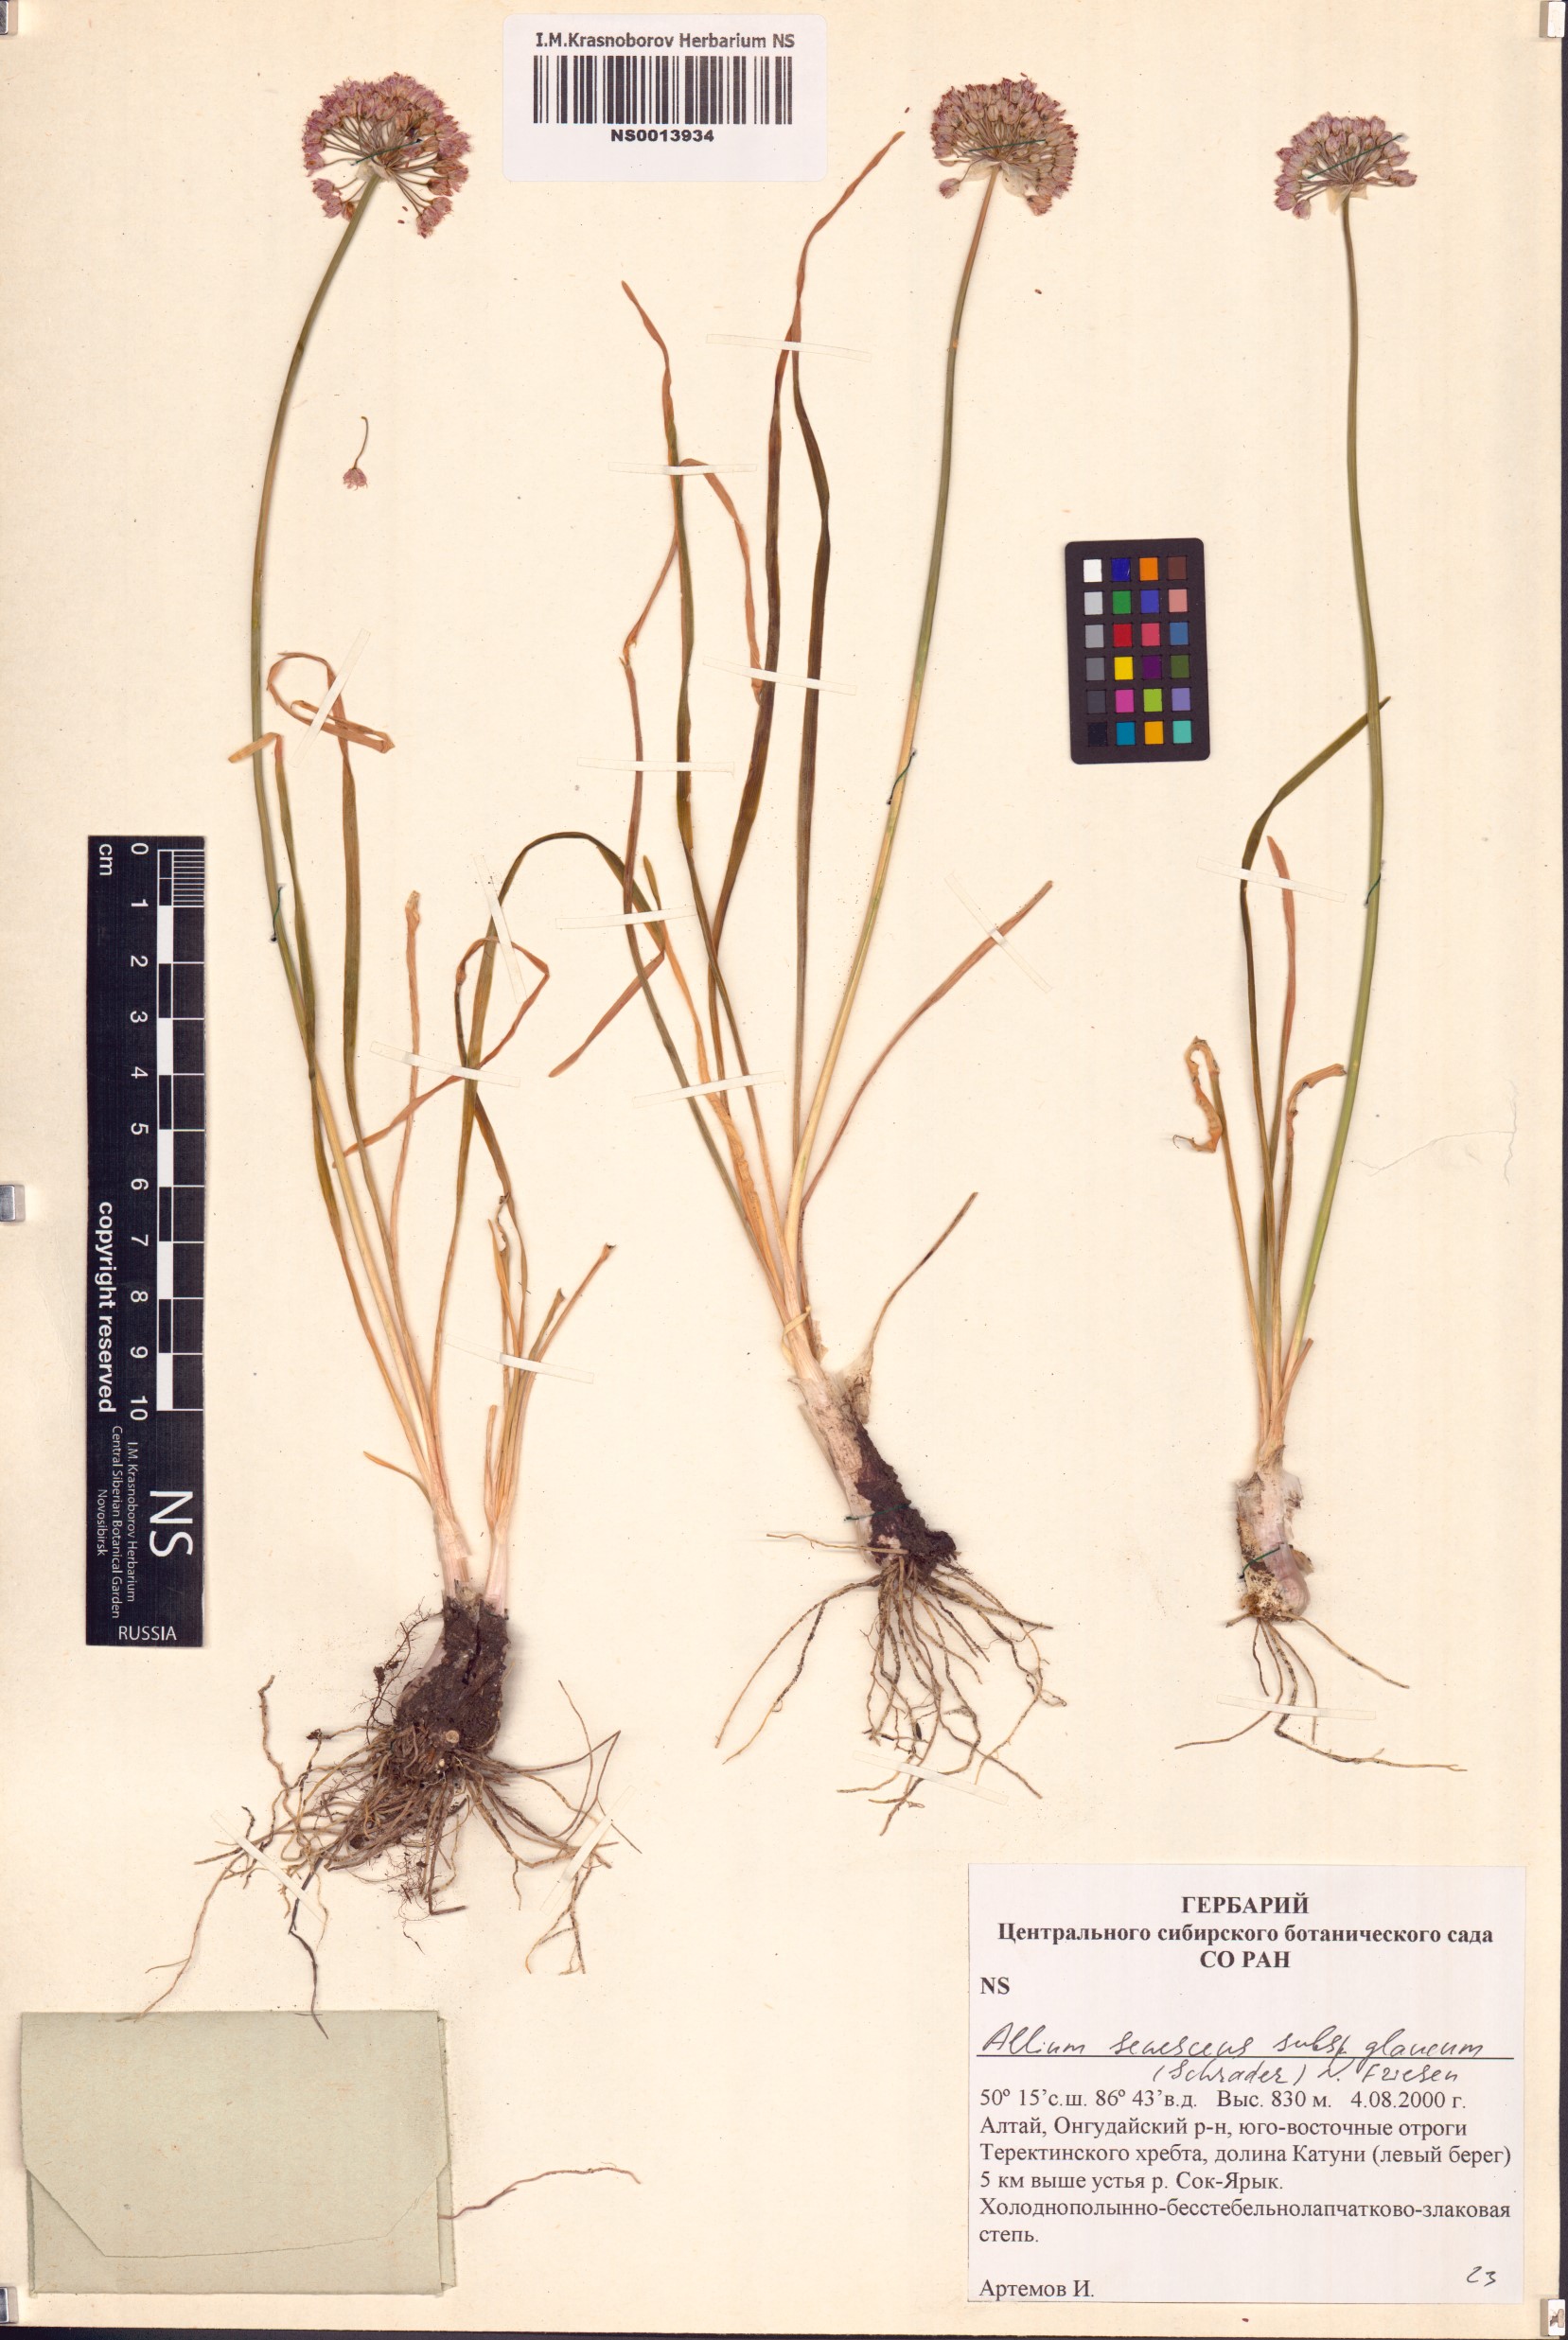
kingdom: Plantae
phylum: Tracheophyta
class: Liliopsida
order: Asparagales
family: Amaryllidaceae
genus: Allium
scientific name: Allium senescens
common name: German garlic
